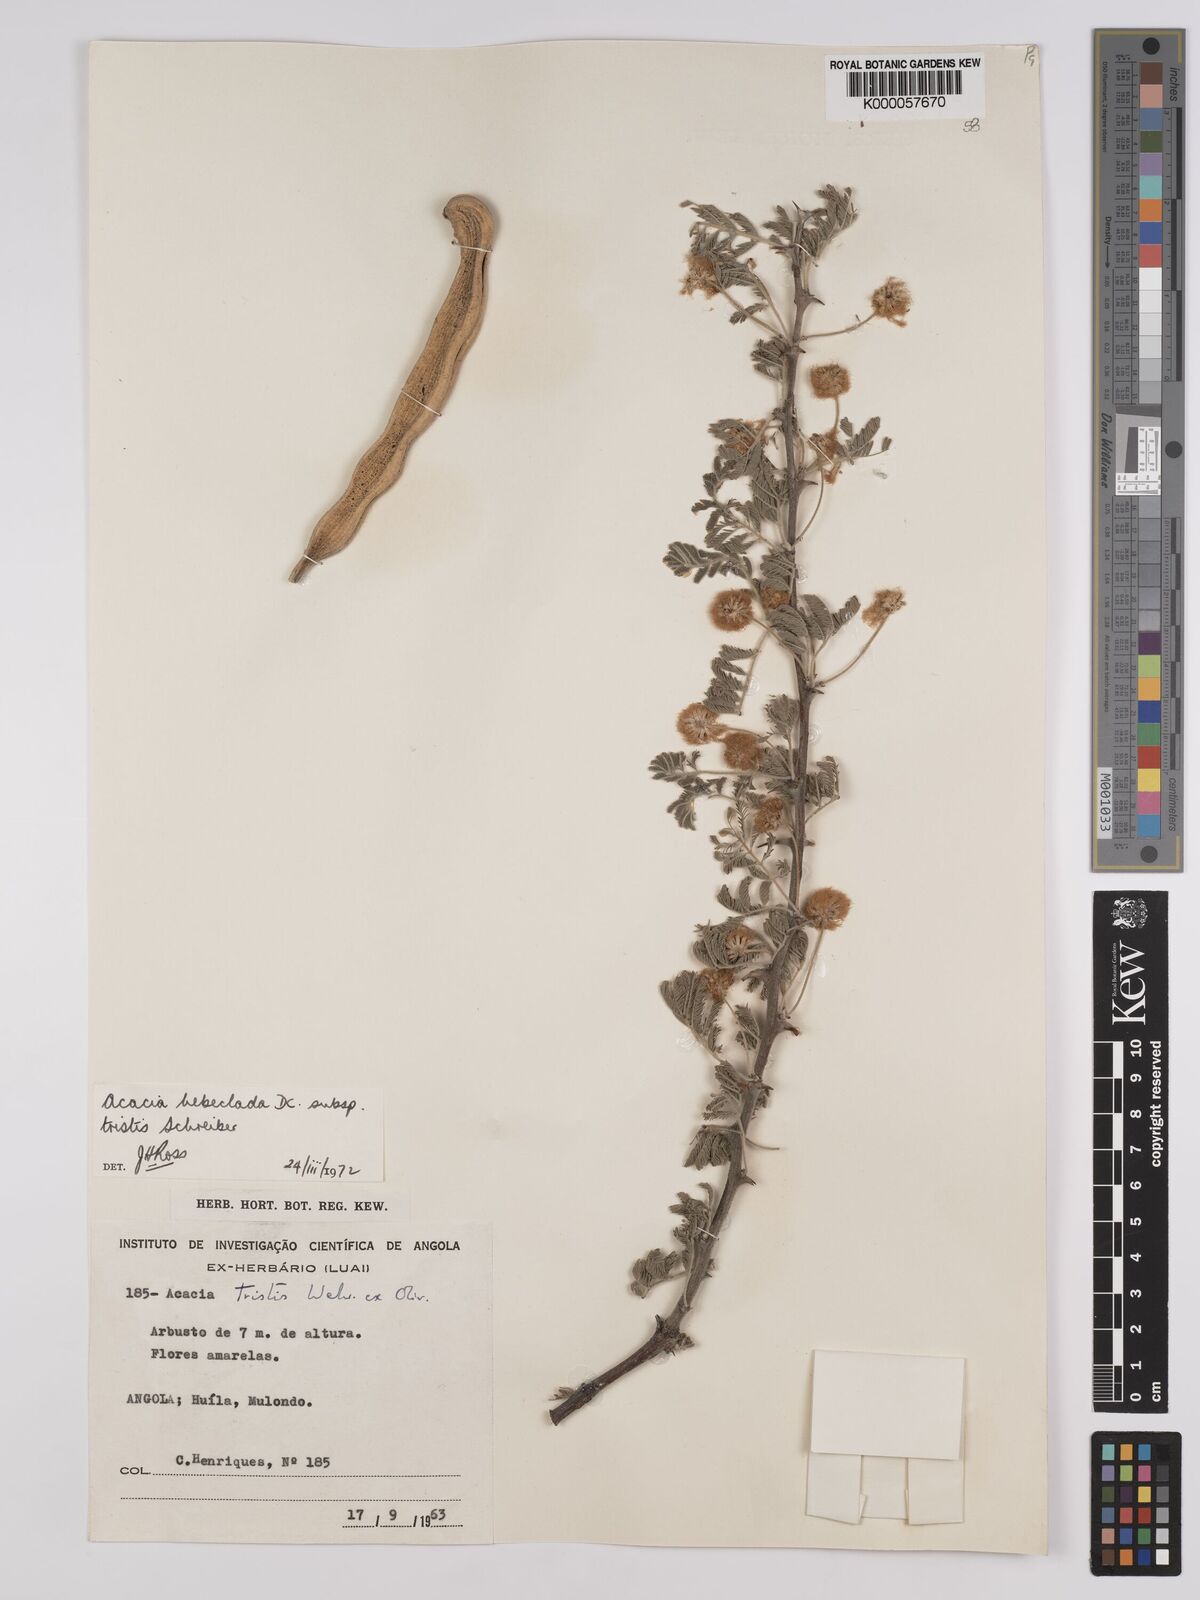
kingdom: Plantae
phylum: Tracheophyta
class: Magnoliopsida
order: Fabales
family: Fabaceae
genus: Vachellia
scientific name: Vachellia hebeclada
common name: Candle thorn
